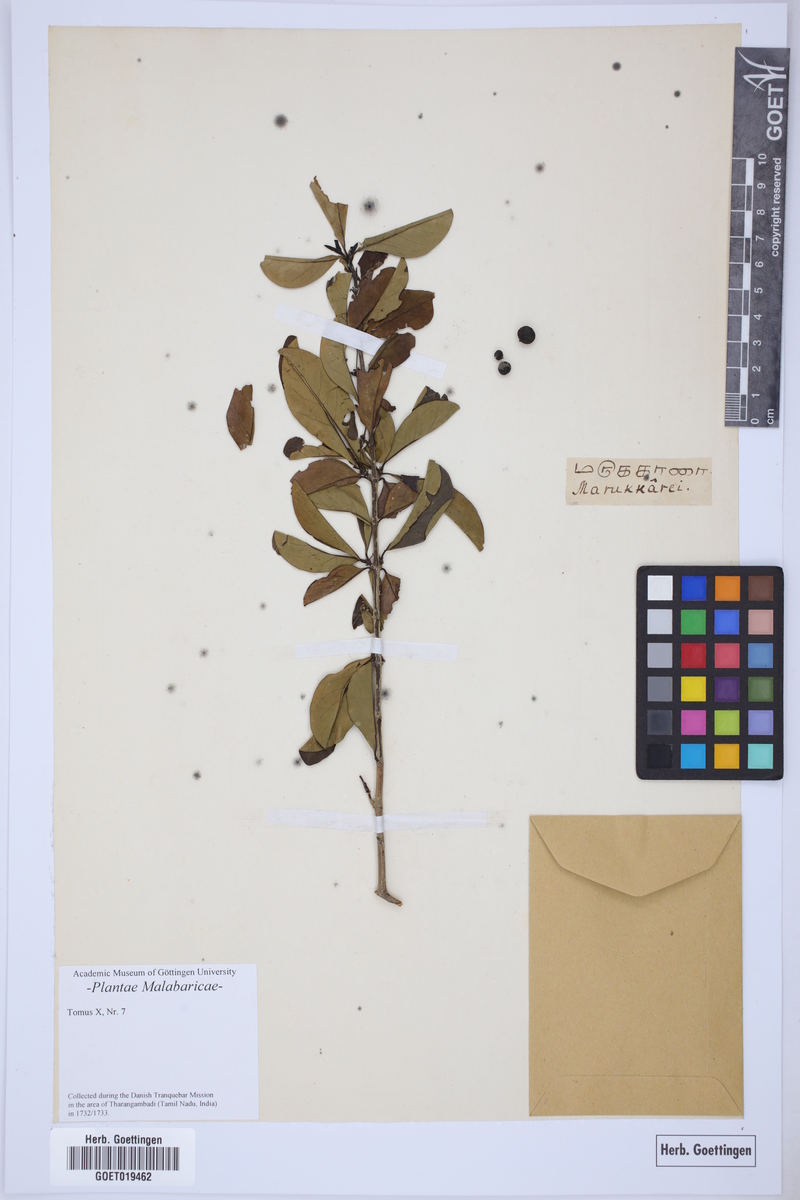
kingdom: Plantae
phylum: Tracheophyta
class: Magnoliopsida
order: Gentianales
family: Rubiaceae
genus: Catunaregam
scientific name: Catunaregam spinosa
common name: Emetic-nut
